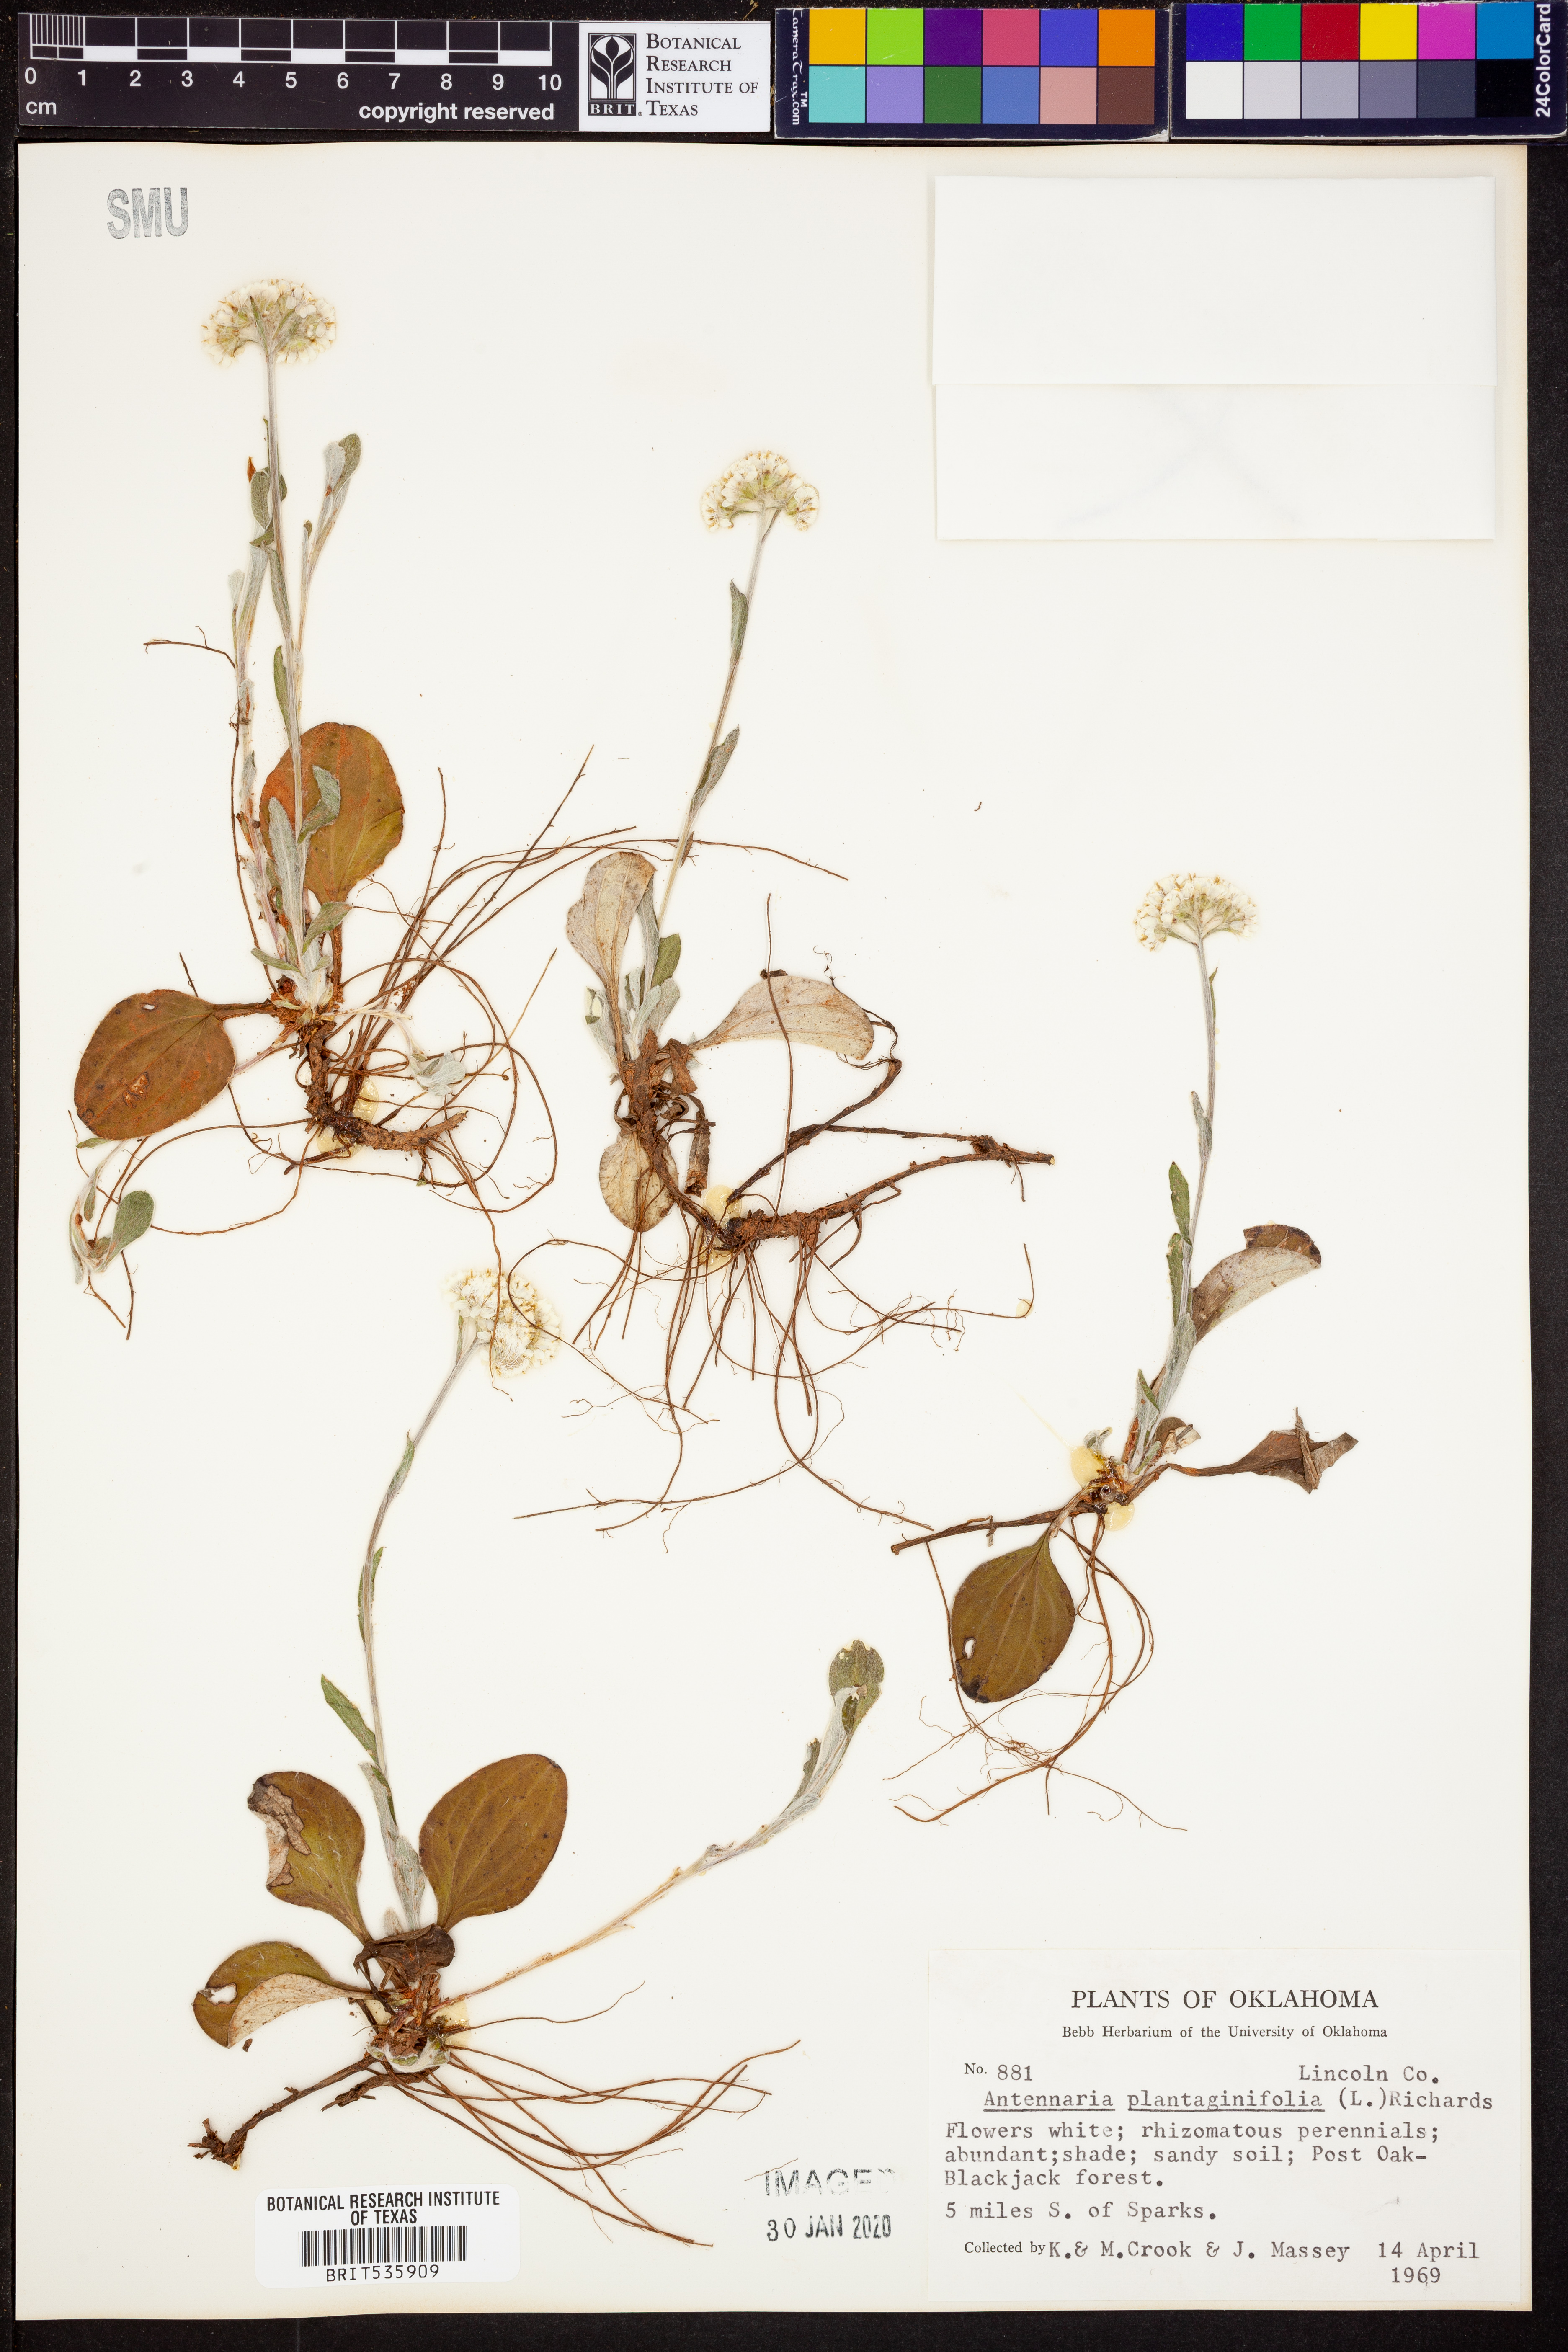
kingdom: Plantae
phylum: Tracheophyta
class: Magnoliopsida
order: Asterales
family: Asteraceae
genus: Antennaria
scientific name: Antennaria plantaginifolia
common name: Plantain-leaved pussytoes
